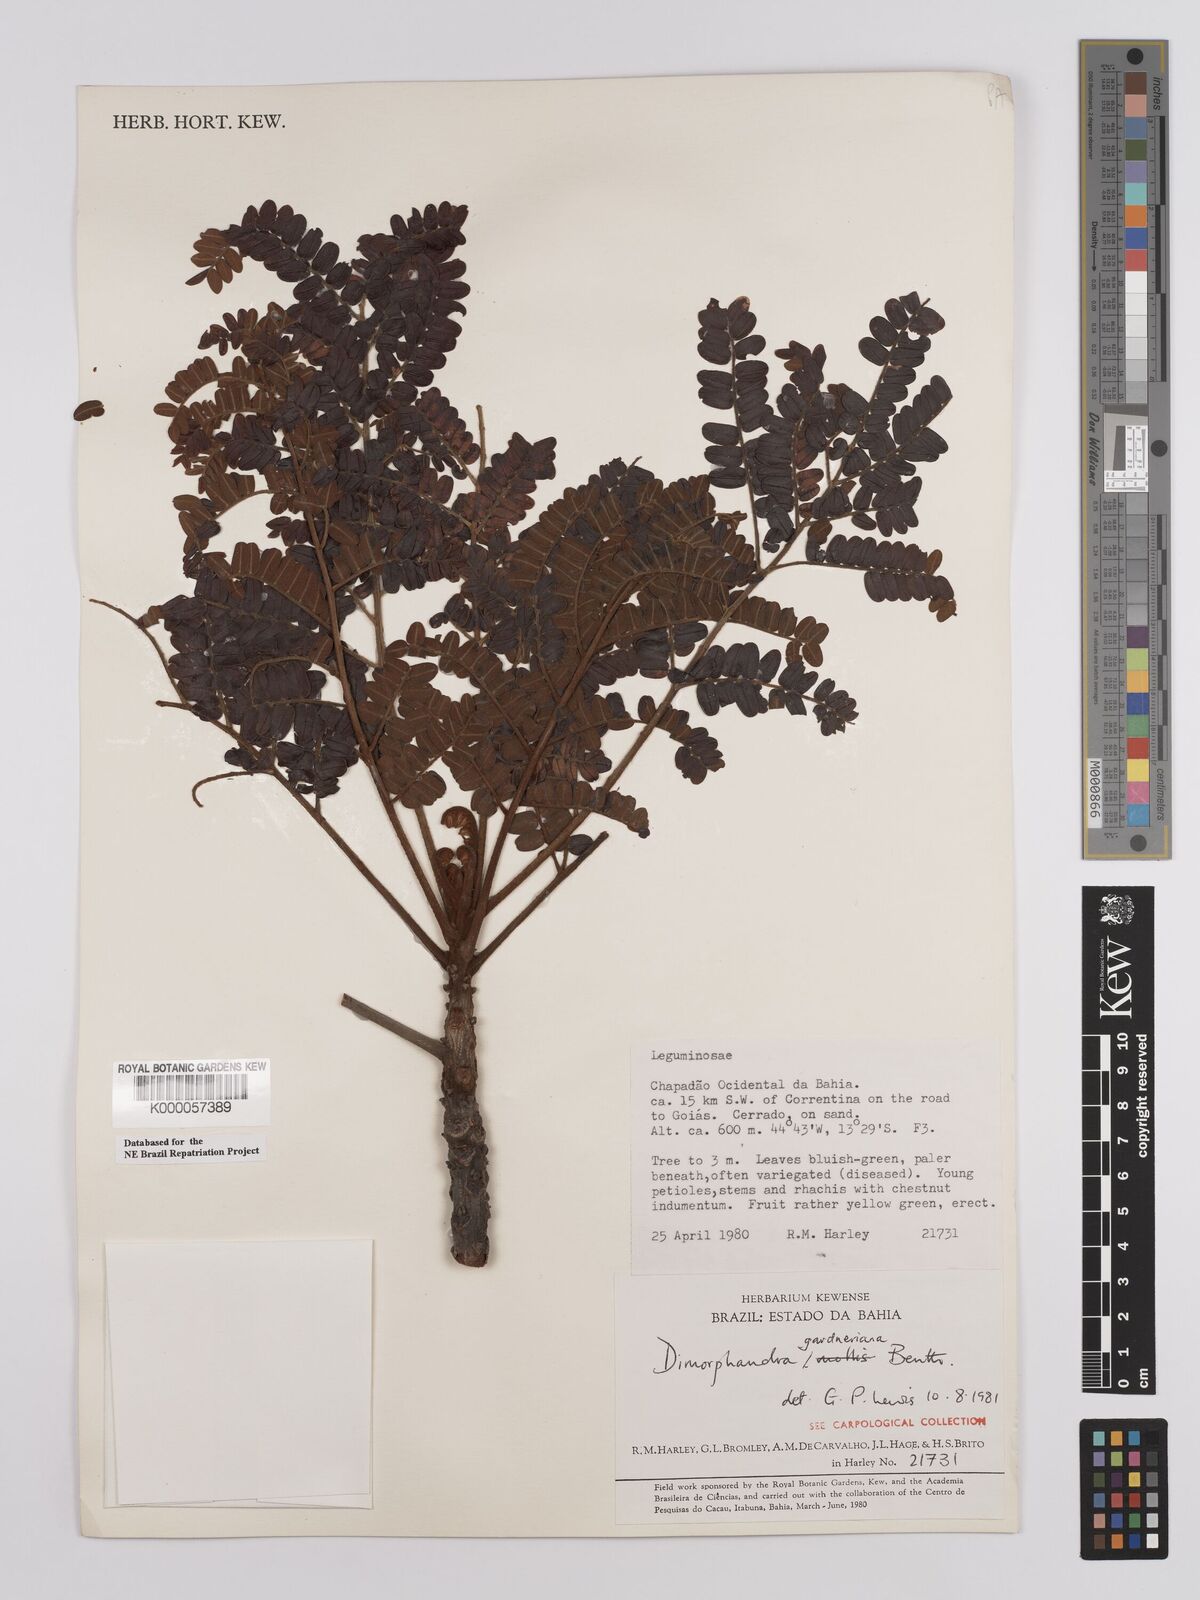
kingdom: Plantae
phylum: Tracheophyta
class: Magnoliopsida
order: Fabales
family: Fabaceae
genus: Dimorphandra
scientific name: Dimorphandra gardneriana
